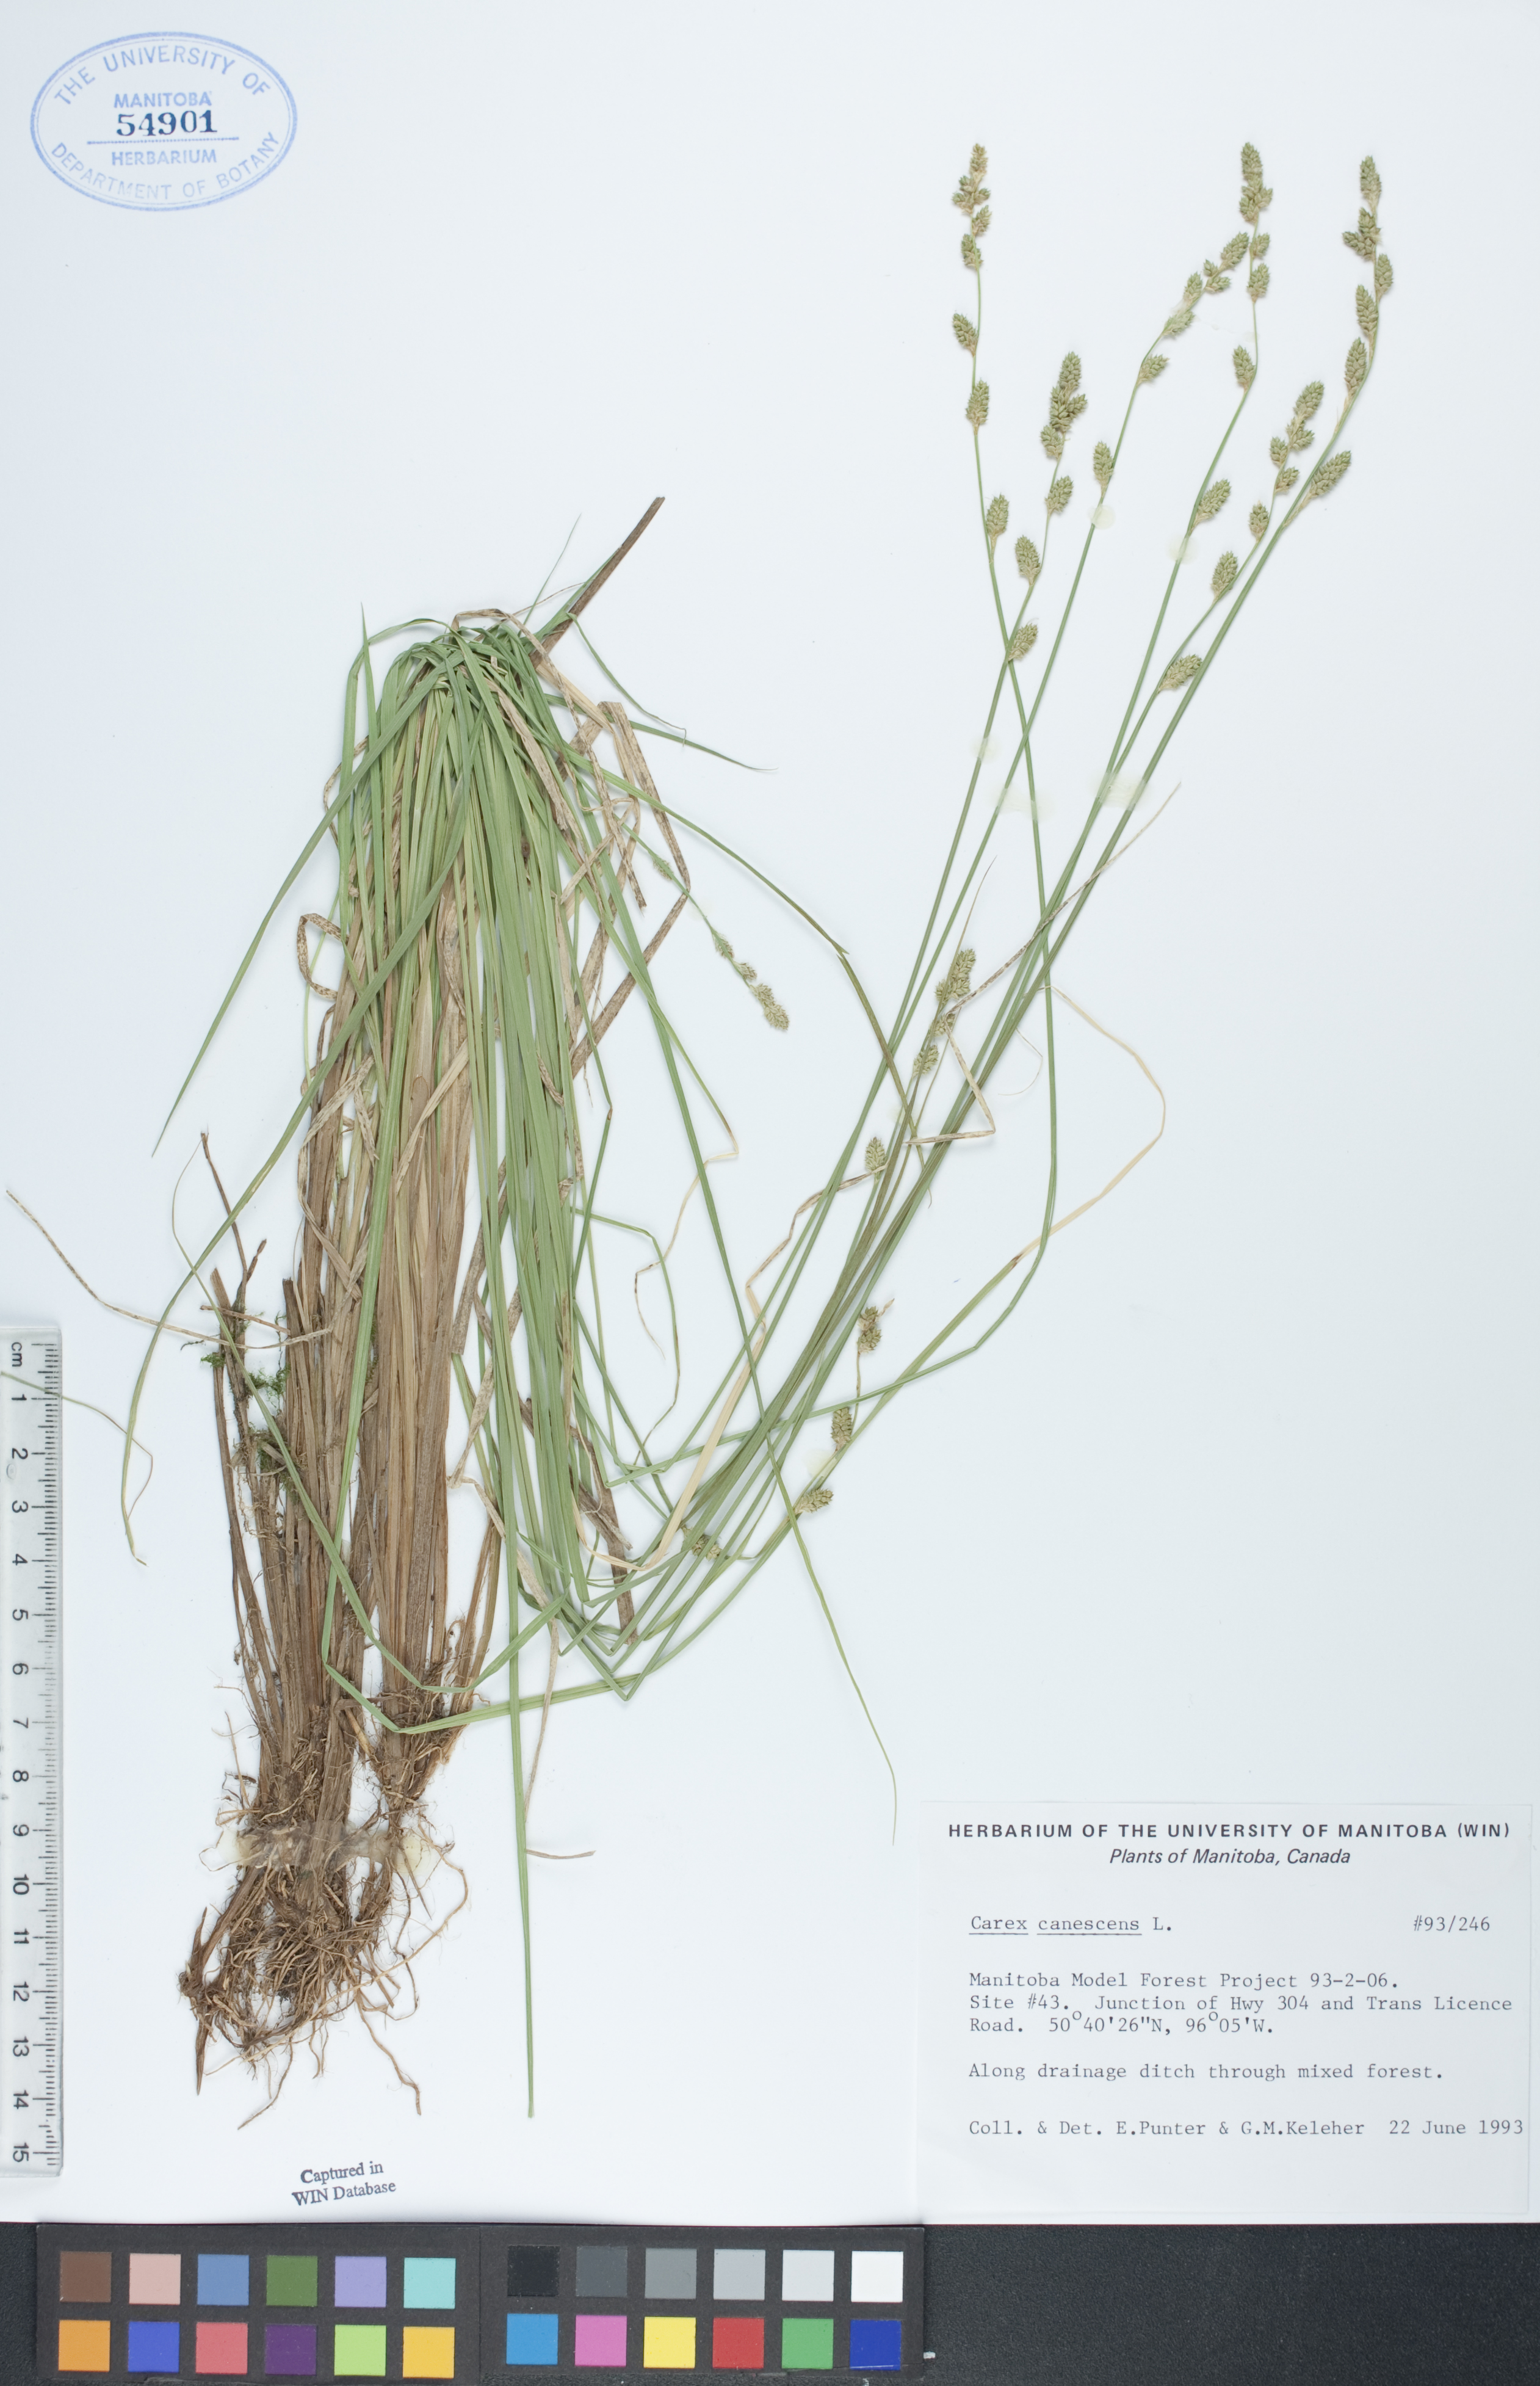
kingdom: Plantae
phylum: Tracheophyta
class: Liliopsida
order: Poales
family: Cyperaceae
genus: Carex
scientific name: Carex canescens
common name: White sedge
